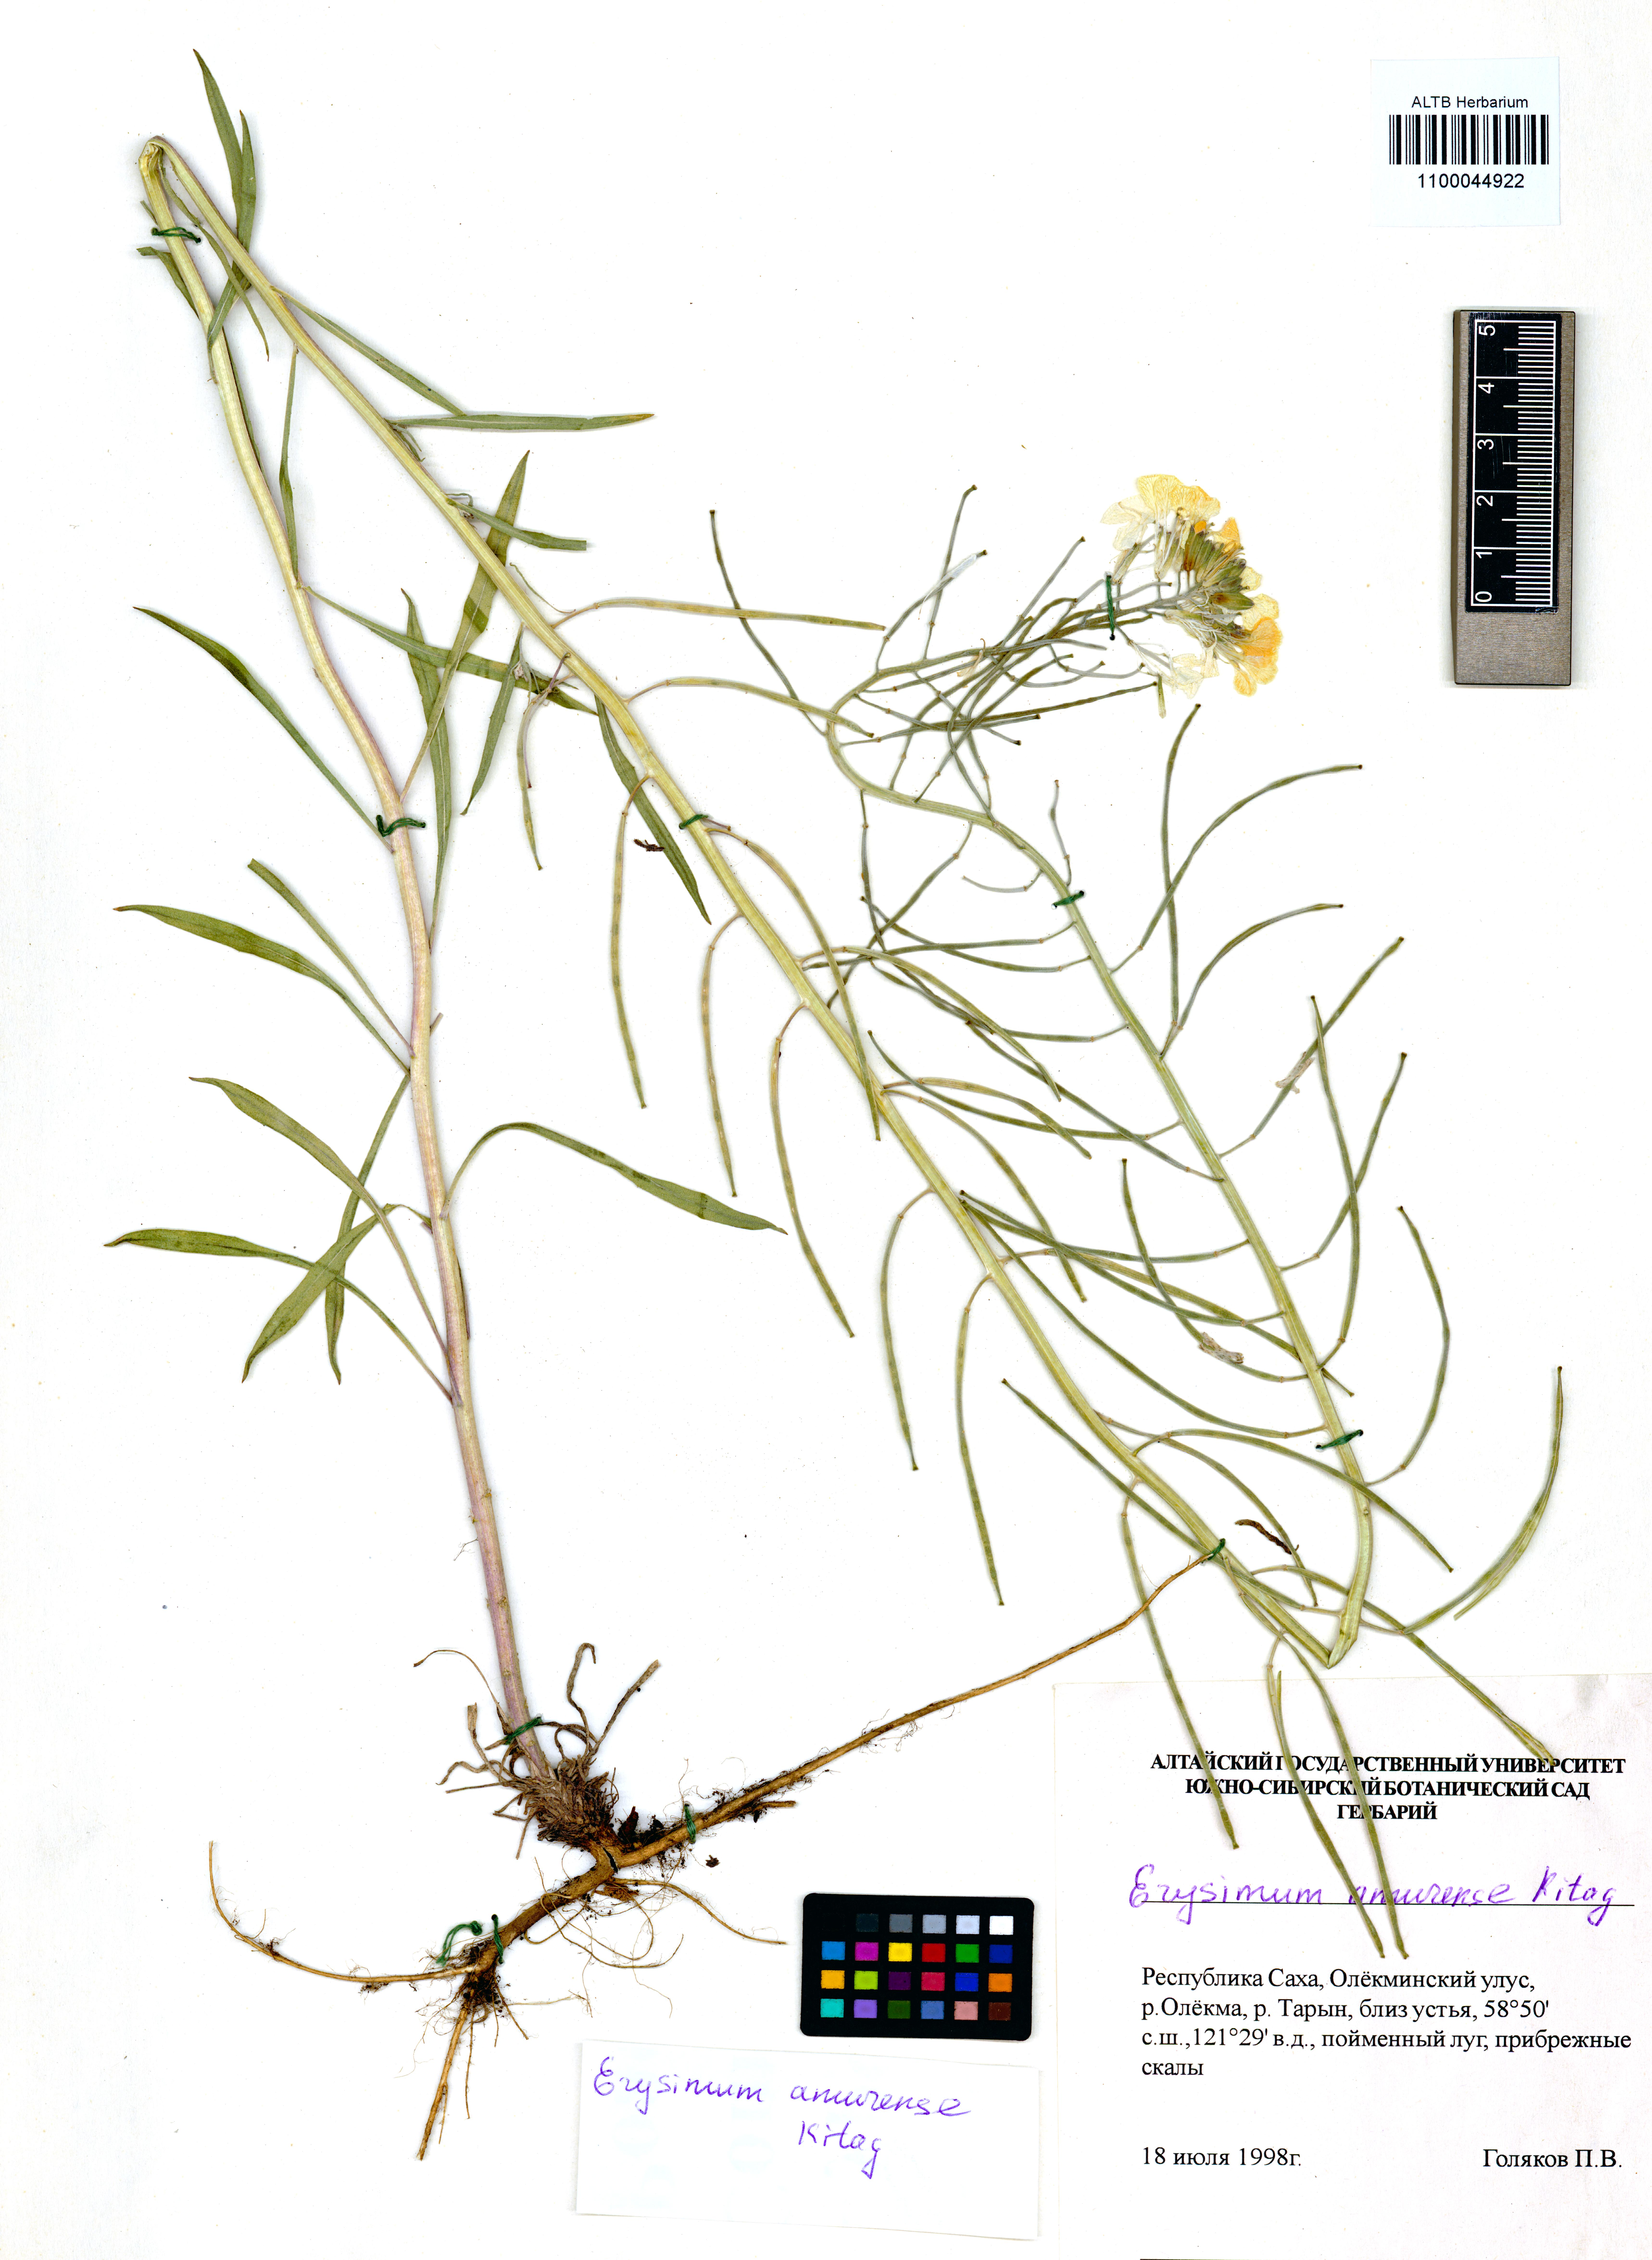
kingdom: Plantae
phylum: Tracheophyta
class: Magnoliopsida
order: Brassicales
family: Brassicaceae
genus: Erysimum
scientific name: Erysimum amurense
